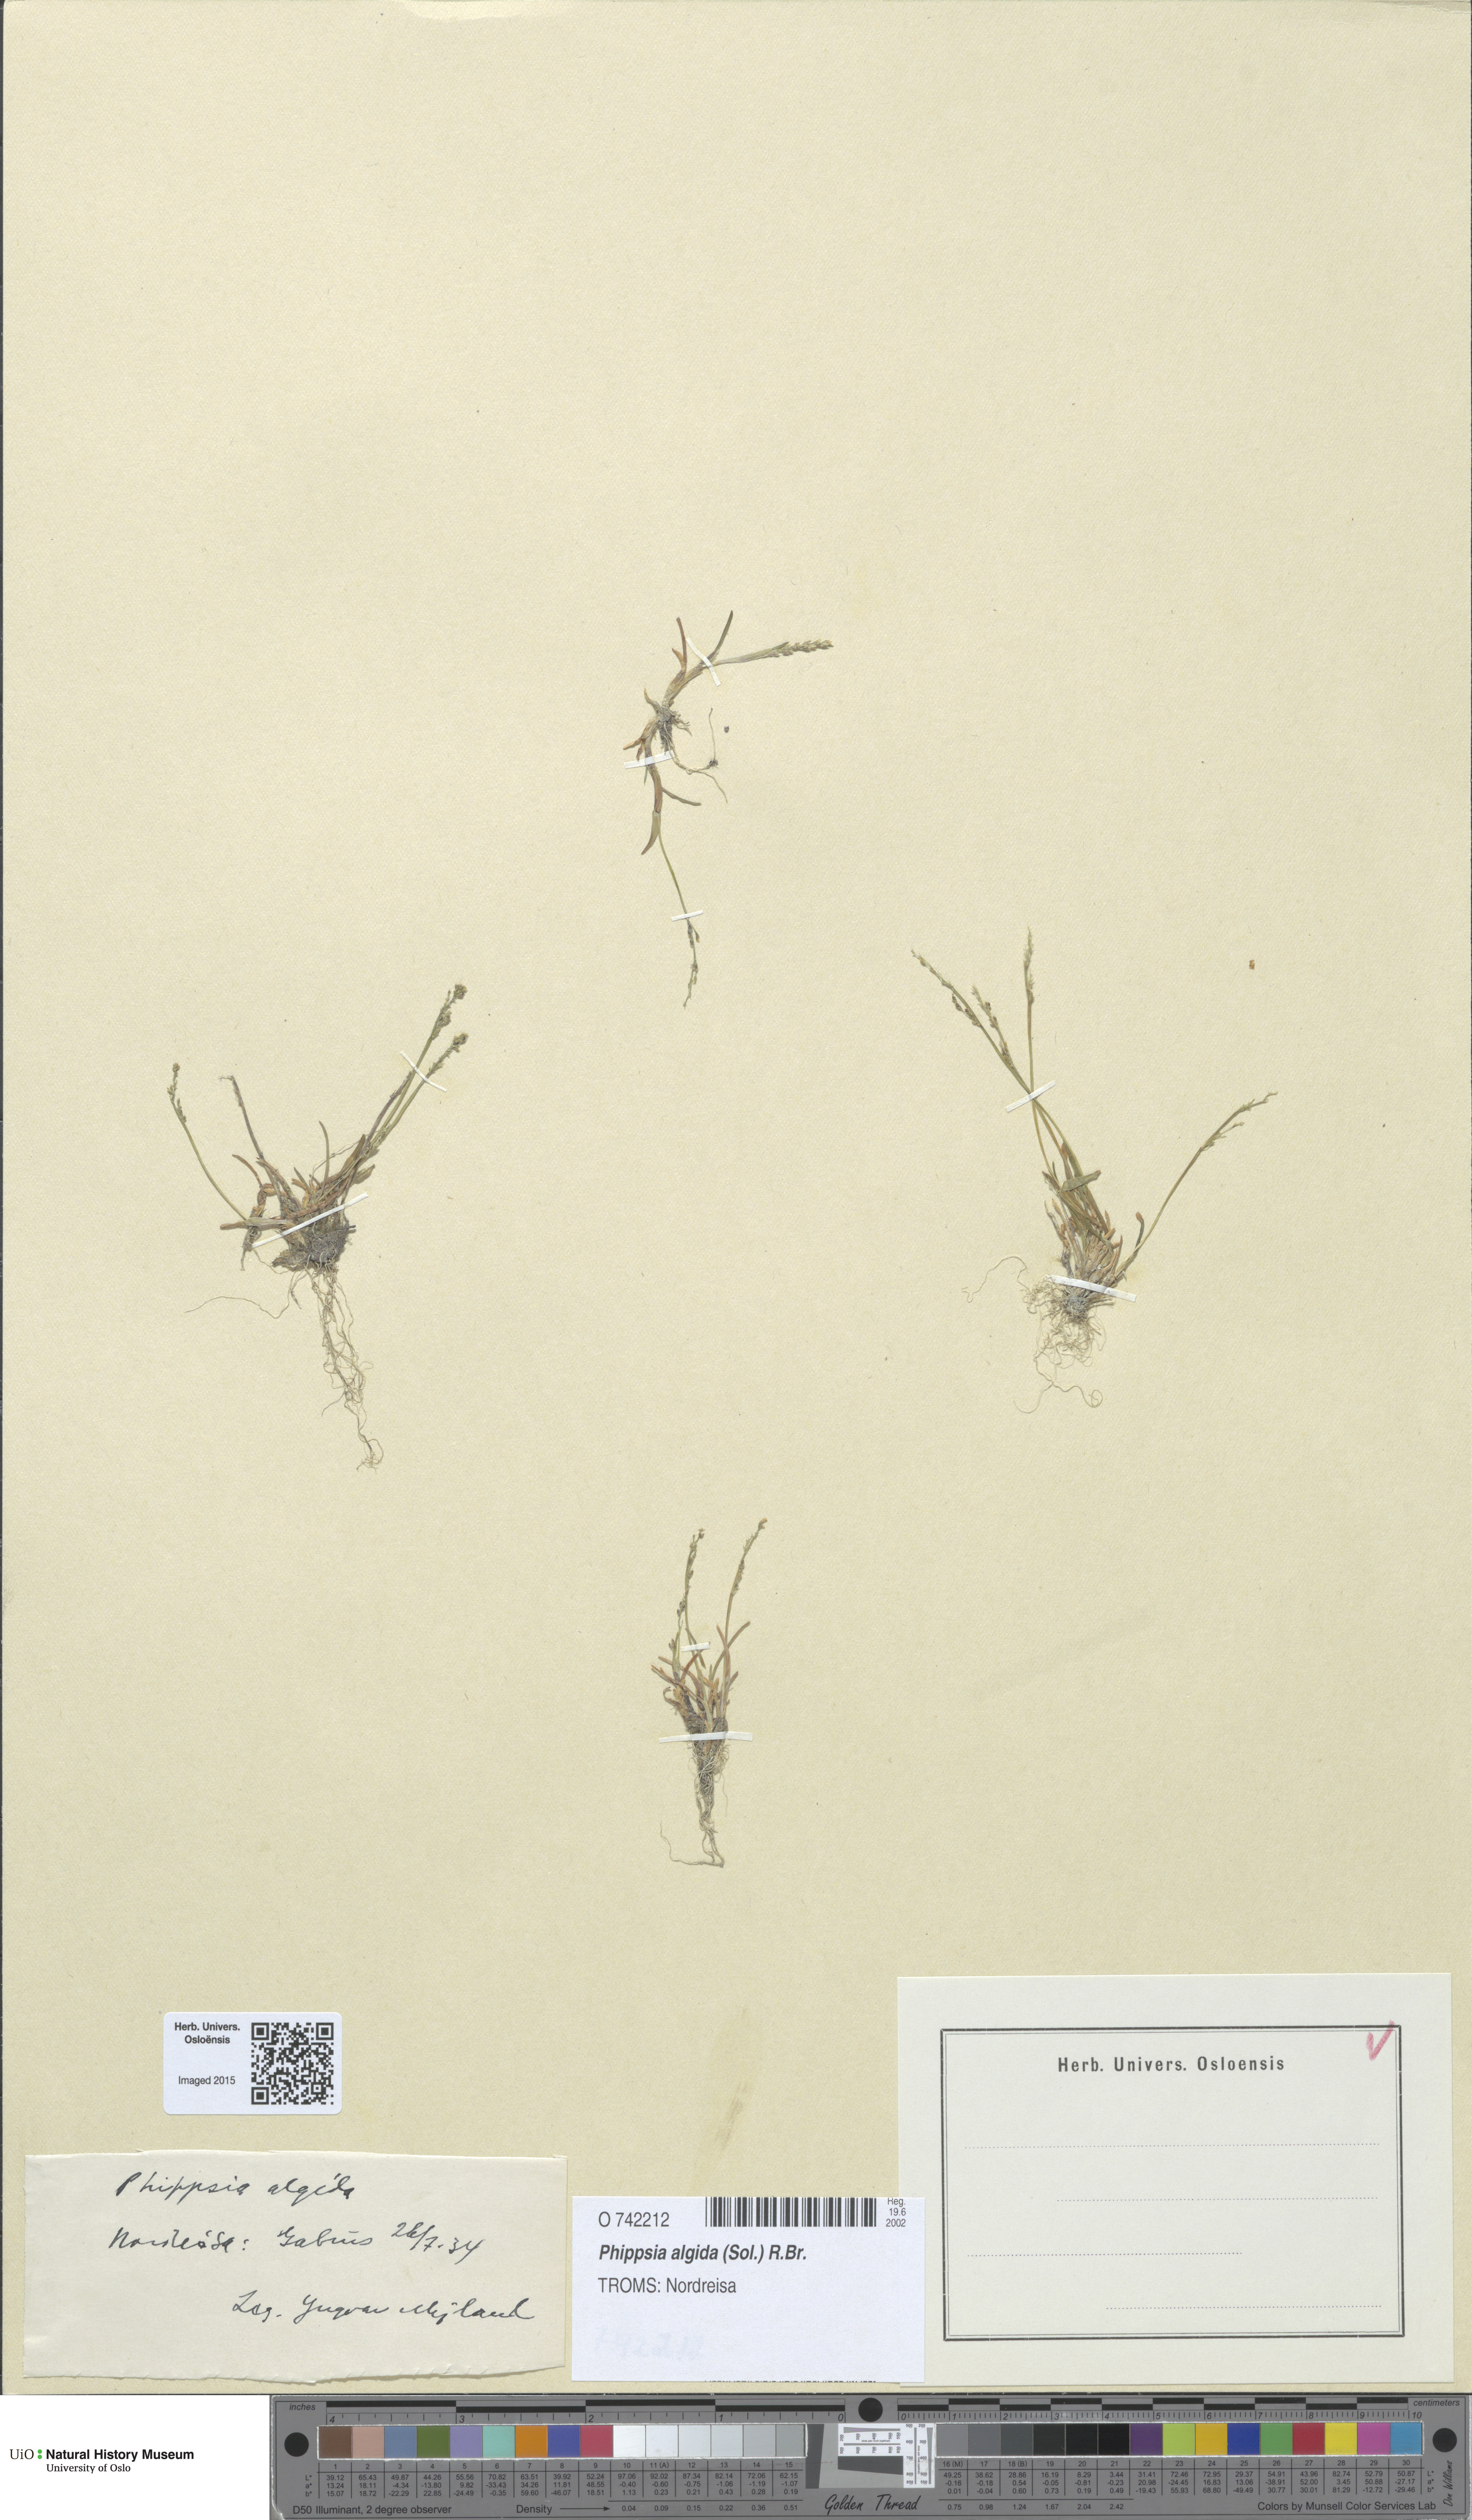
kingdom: Plantae
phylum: Tracheophyta
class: Liliopsida
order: Poales
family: Poaceae
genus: Phippsia
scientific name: Phippsia algida
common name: Ice grass
